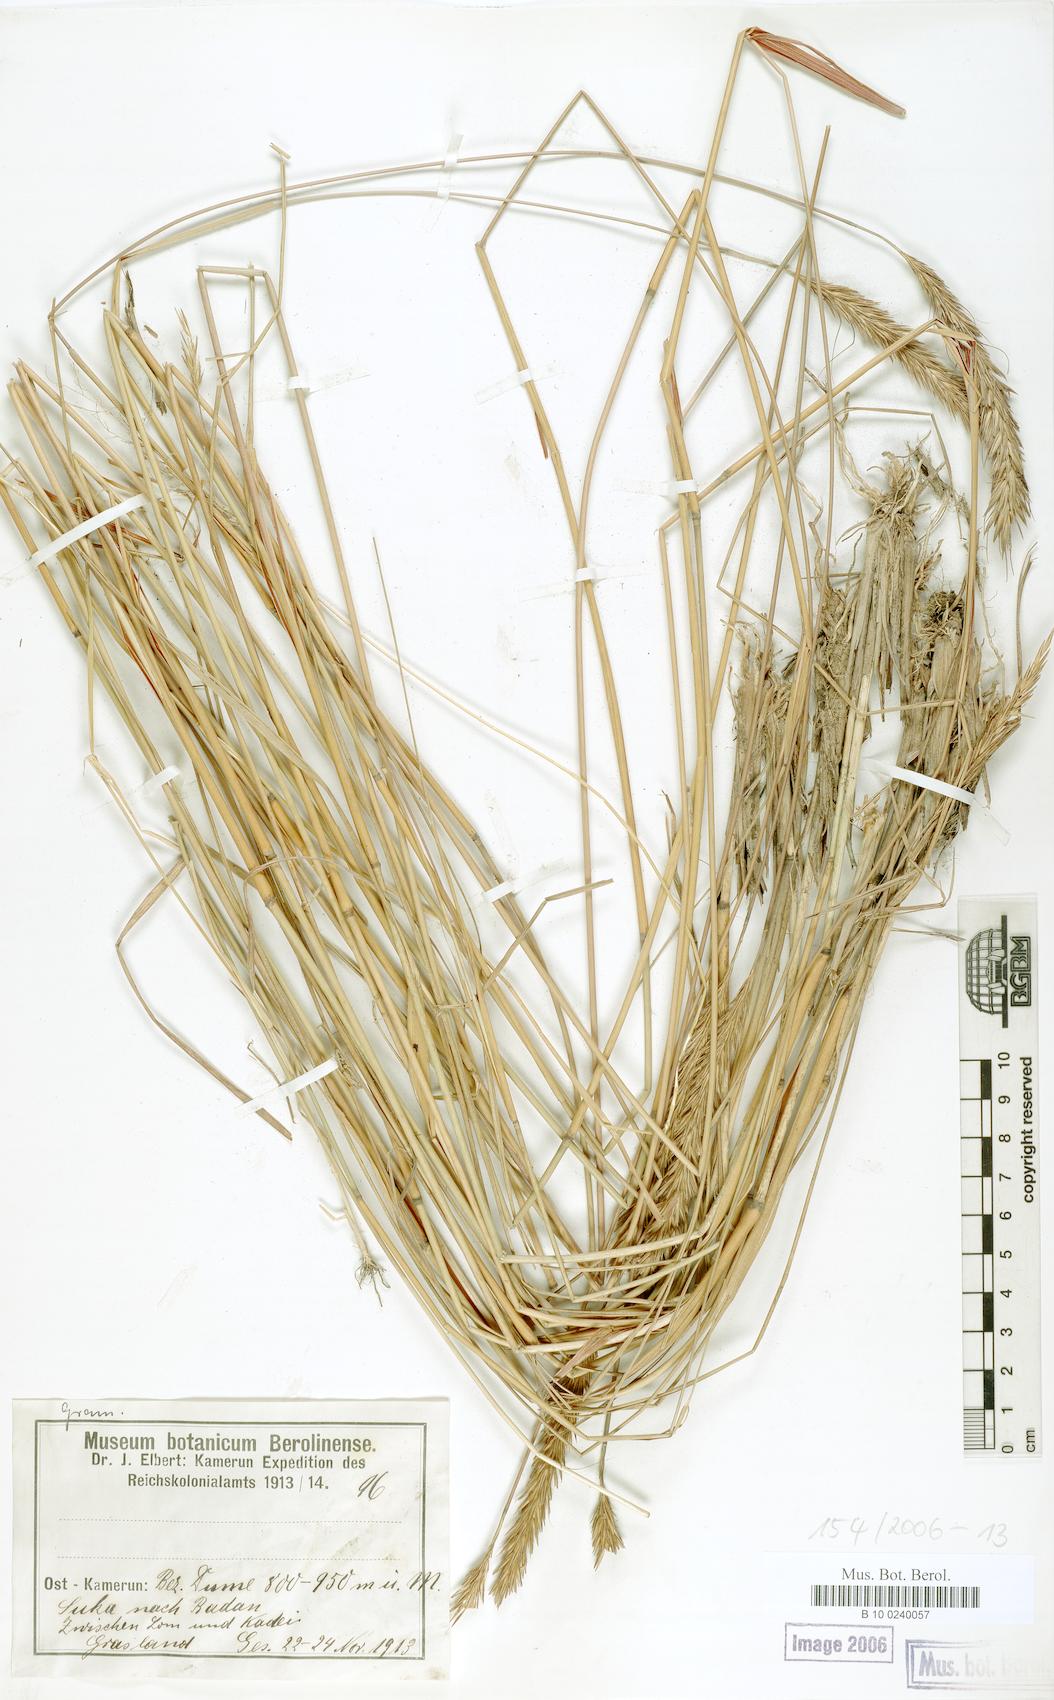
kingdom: Plantae
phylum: Tracheophyta
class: Liliopsida
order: Poales
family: Poaceae
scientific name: Poaceae
